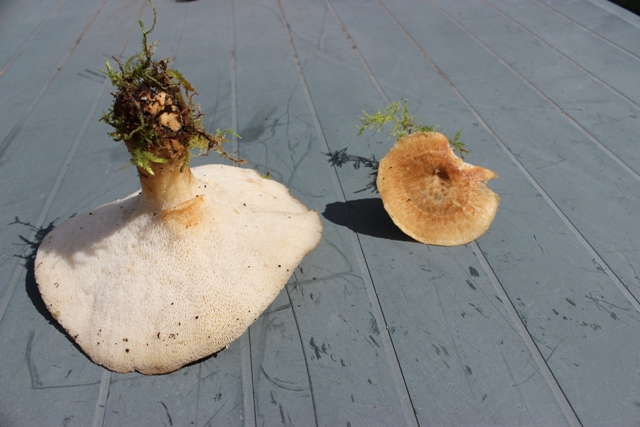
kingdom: Fungi
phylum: Basidiomycota
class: Agaricomycetes
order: Polyporales
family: Polyporaceae
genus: Polyporus
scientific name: Polyporus tuberaster
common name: knoldet stilkporesvamp
